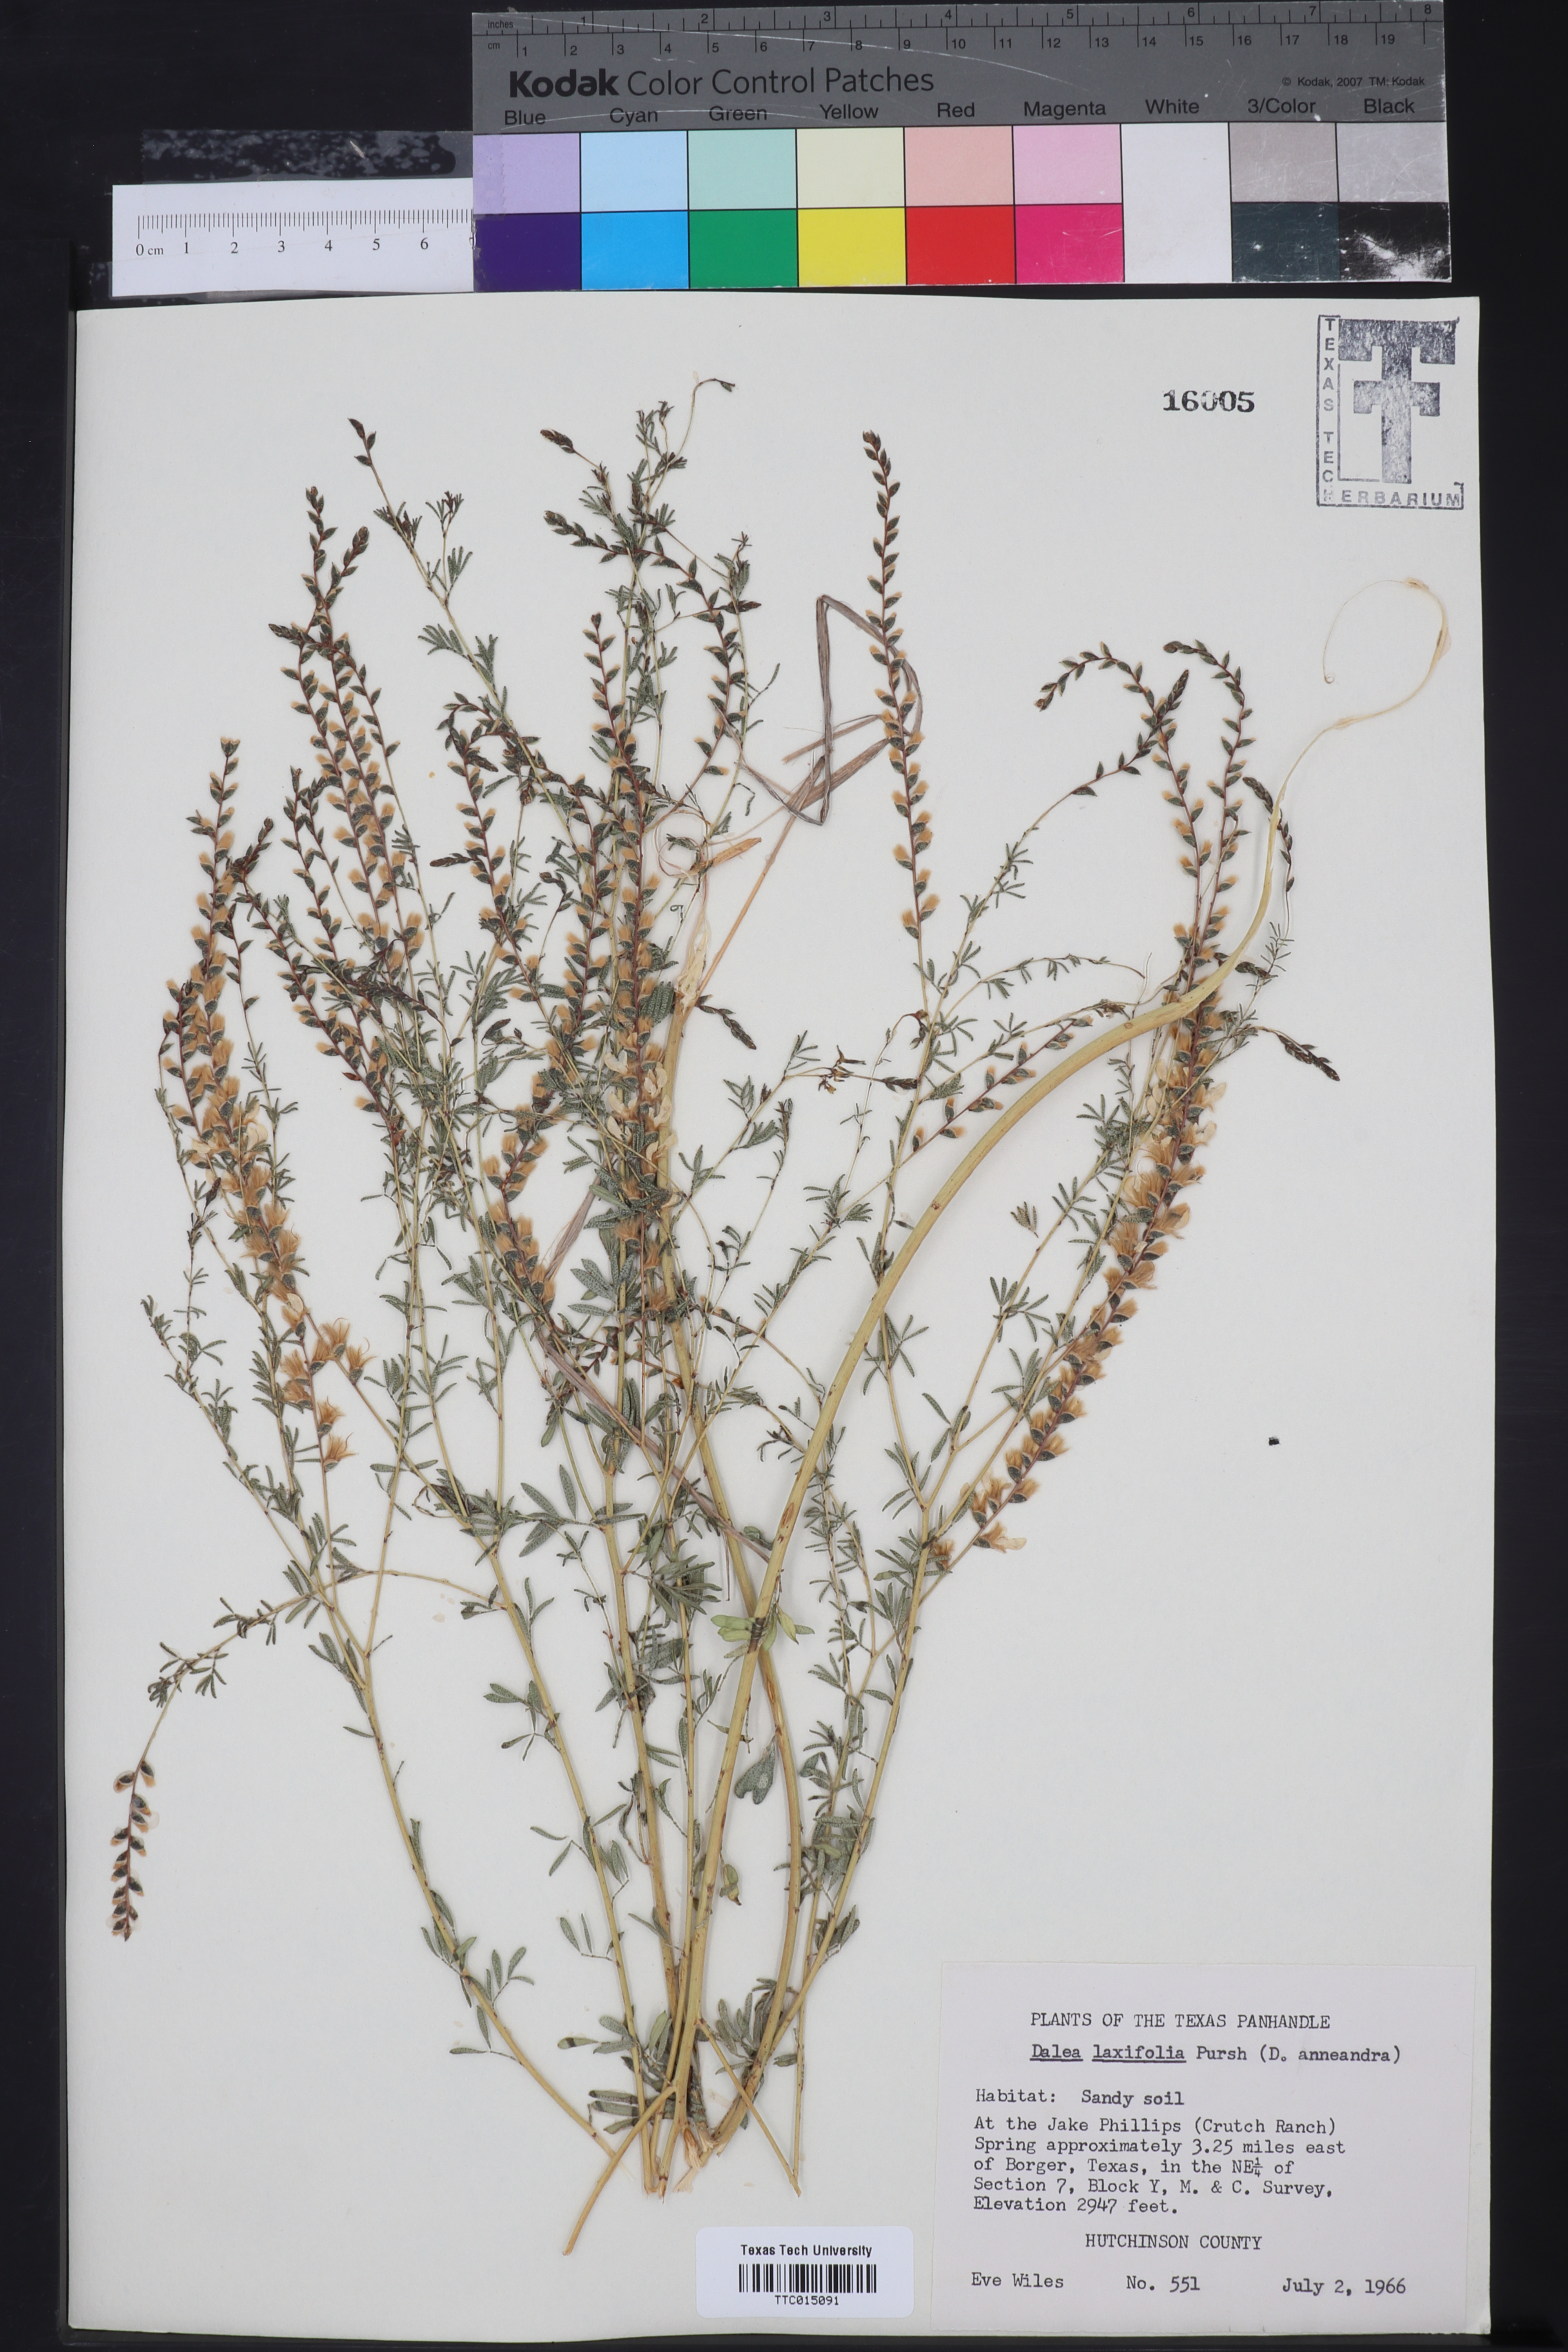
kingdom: Plantae
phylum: Tracheophyta
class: Magnoliopsida
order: Fabales
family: Fabaceae
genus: Dalea
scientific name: Dalea hegewischiana
